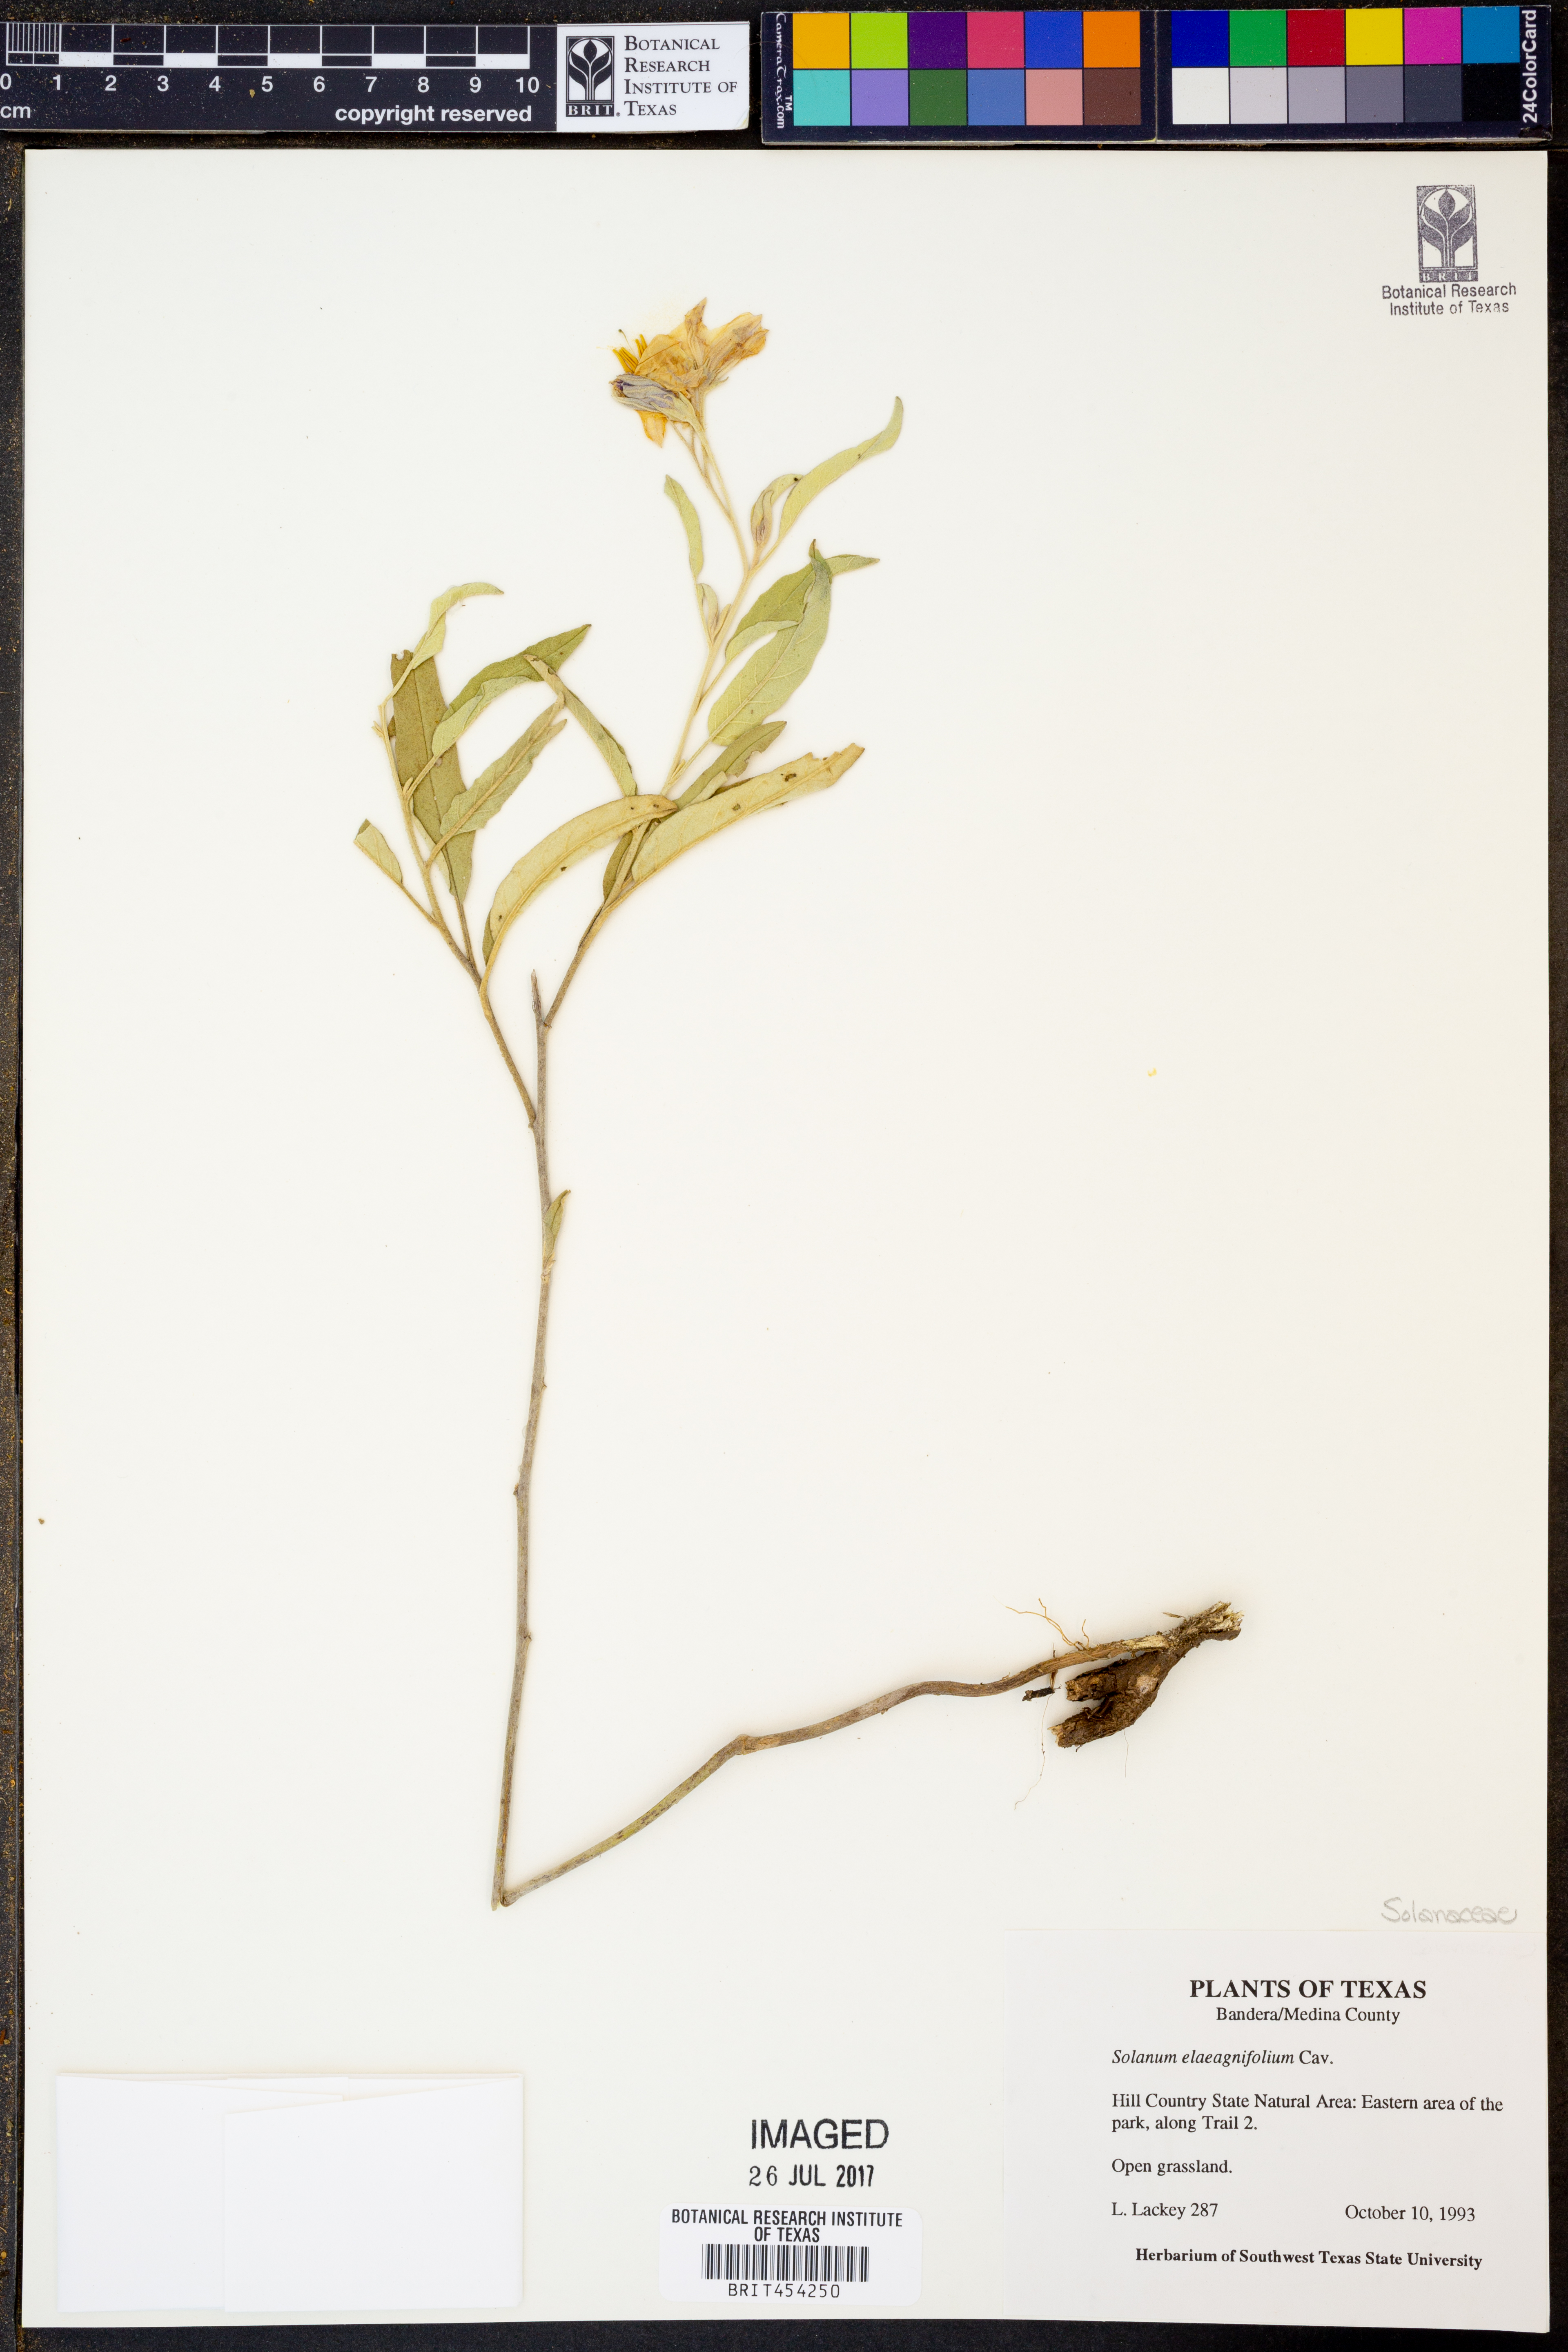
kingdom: Plantae
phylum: Tracheophyta
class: Magnoliopsida
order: Solanales
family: Solanaceae
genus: Solanum
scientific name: Solanum elaeagnifolium
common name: Silverleaf nightshade
